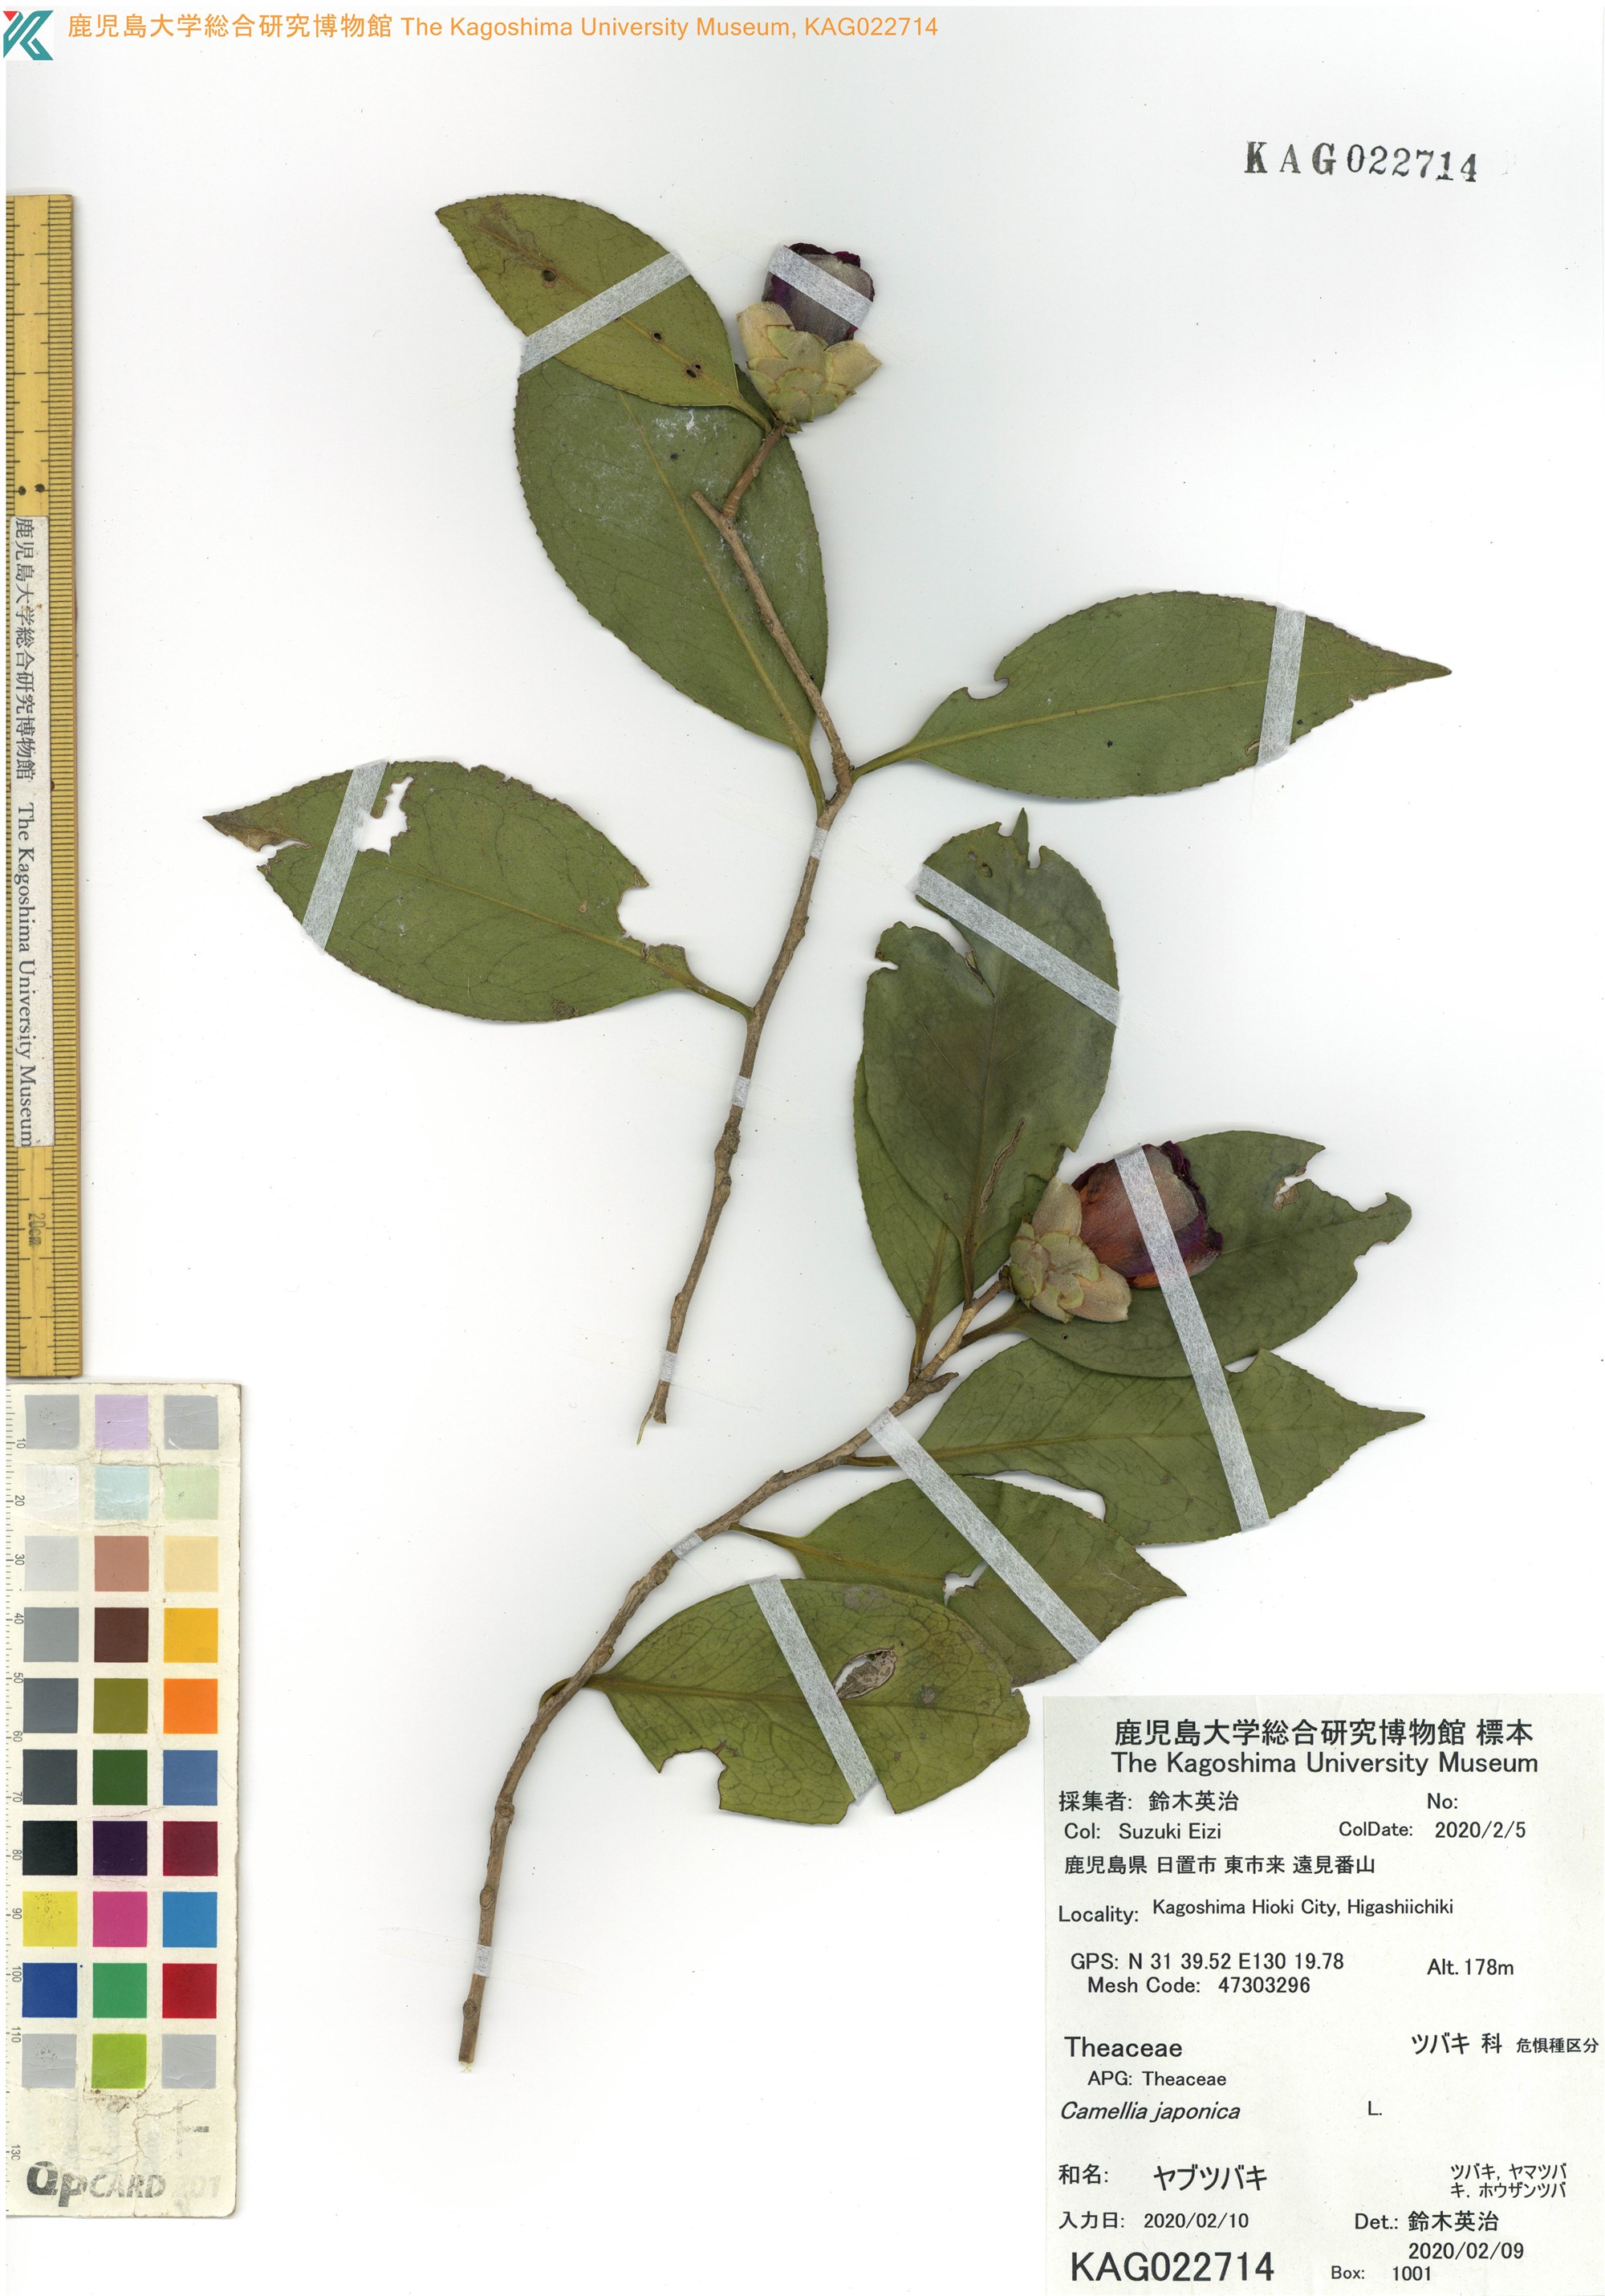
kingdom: Plantae
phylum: Tracheophyta
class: Magnoliopsida
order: Ericales
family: Theaceae
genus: Camellia
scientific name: Camellia japonica
